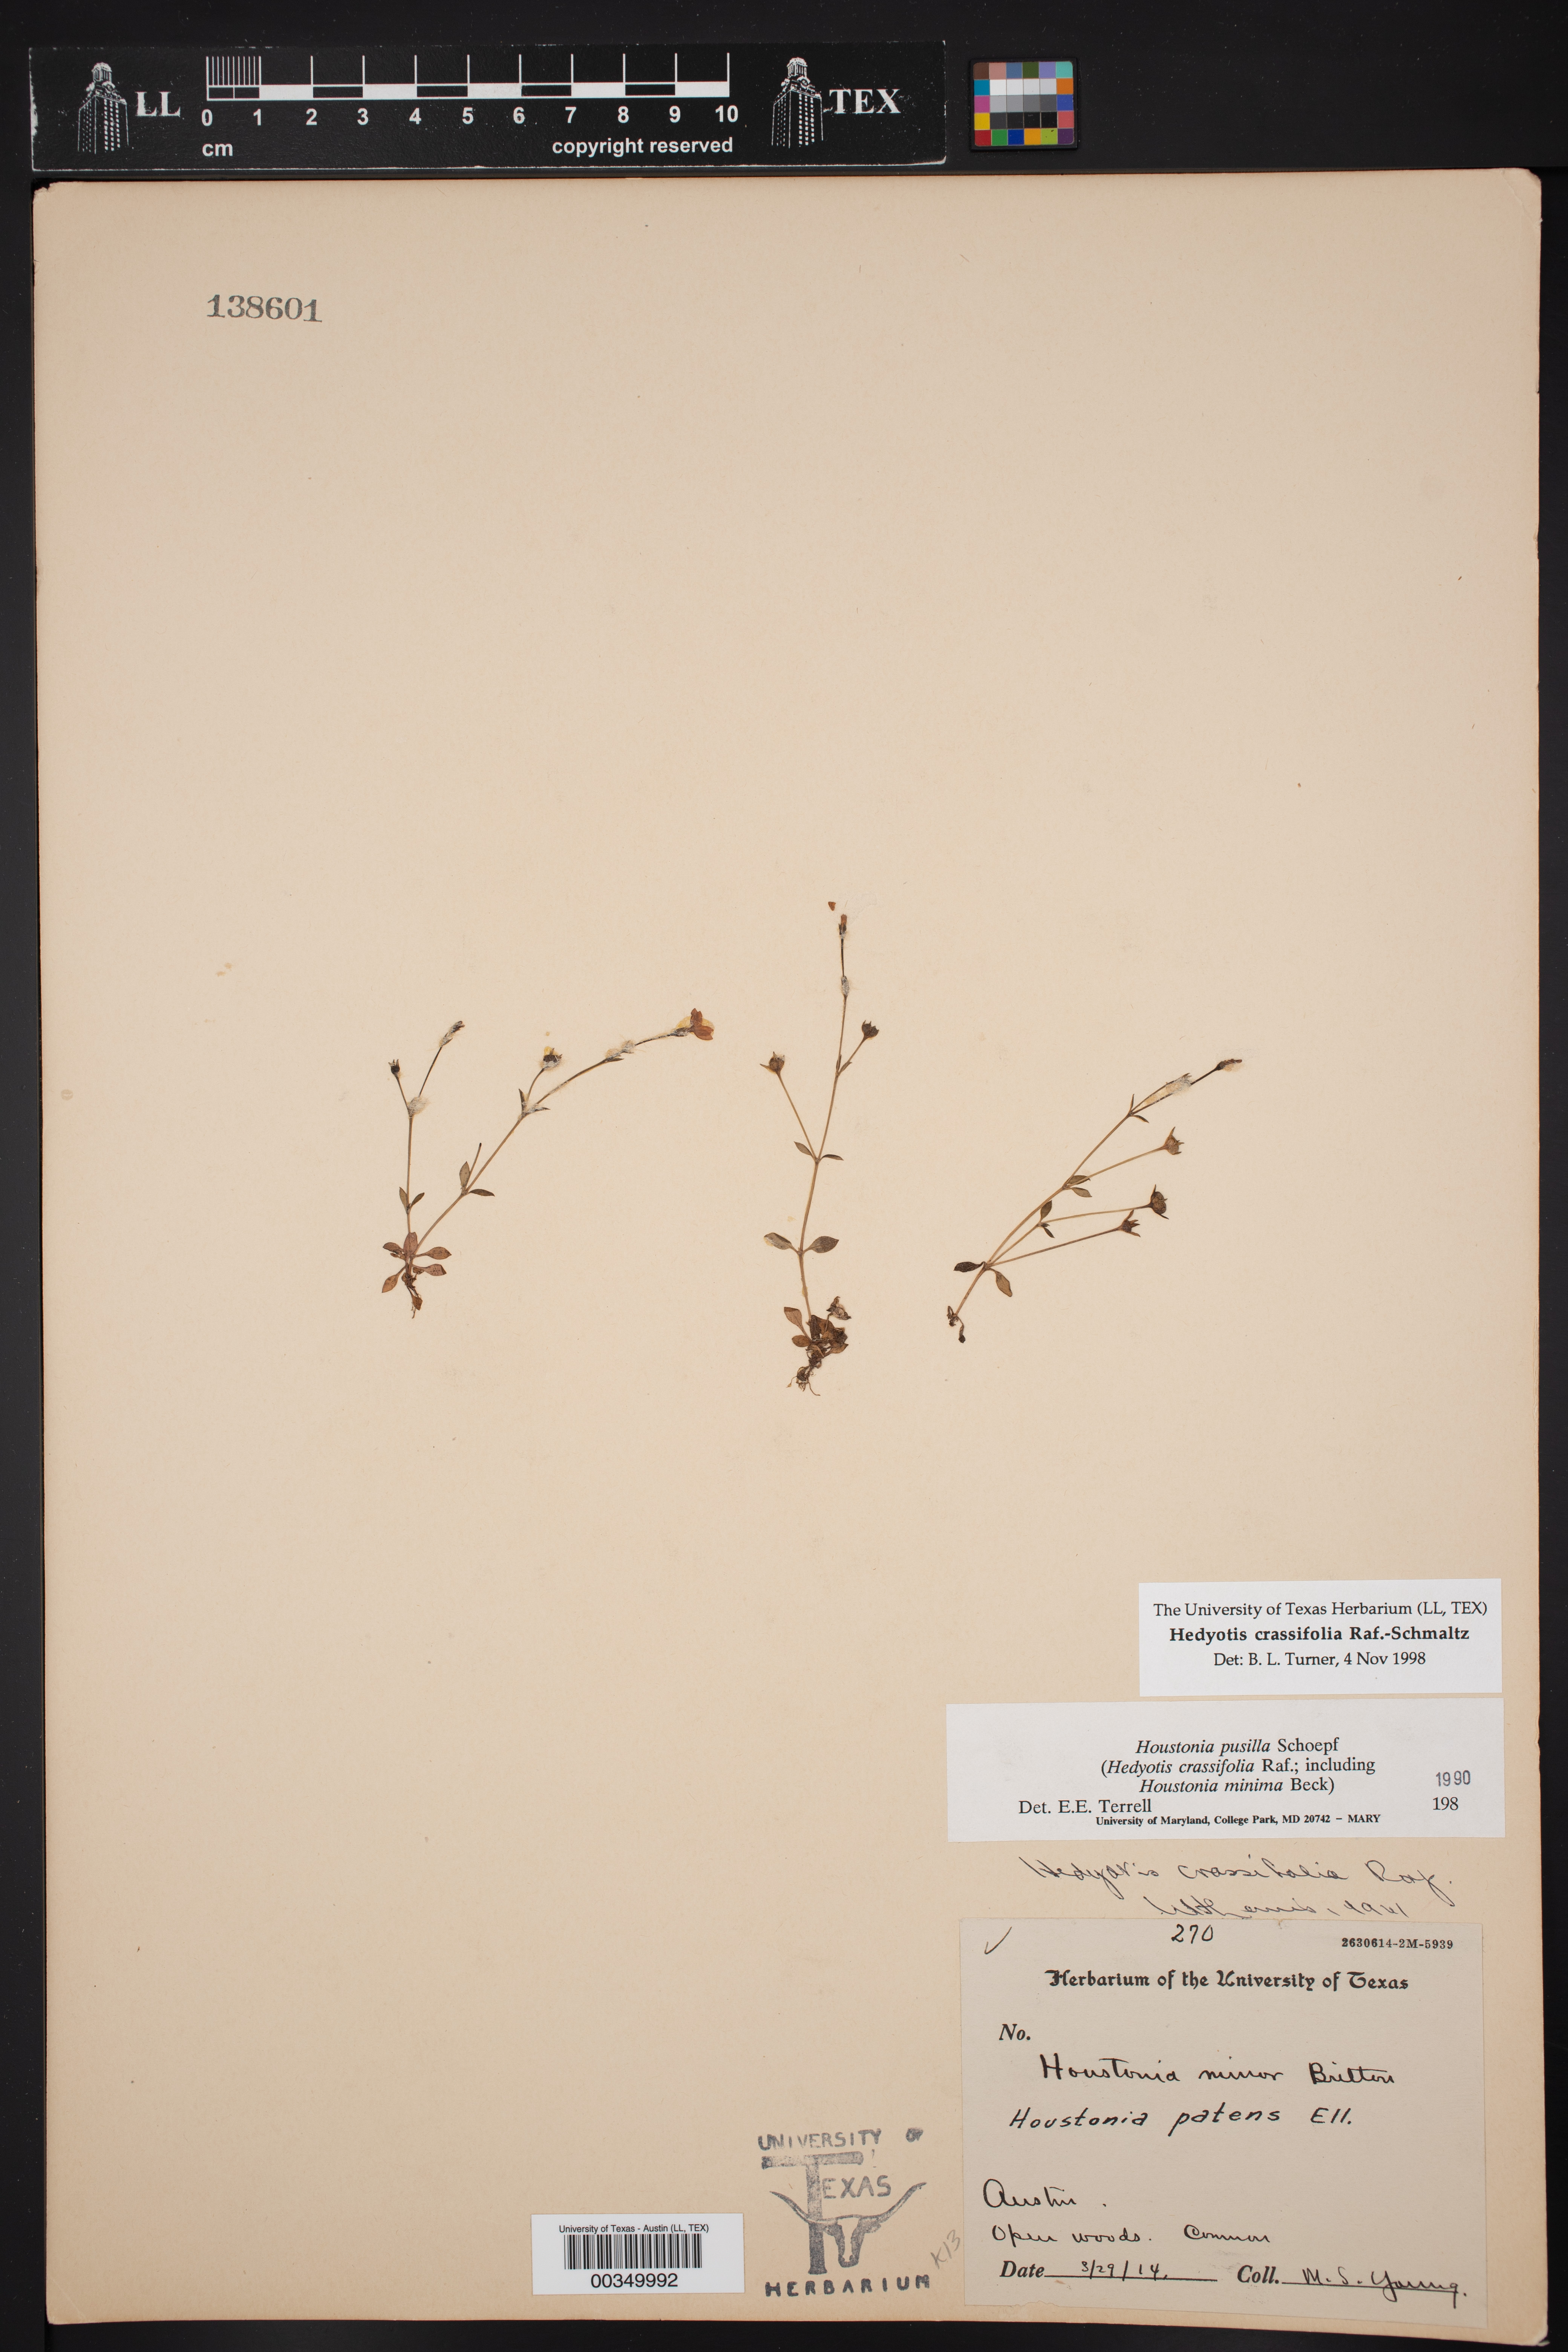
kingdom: Plantae
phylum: Tracheophyta
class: Magnoliopsida
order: Gentianales
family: Rubiaceae
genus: Hedyotis
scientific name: Hedyotis crassifolia
